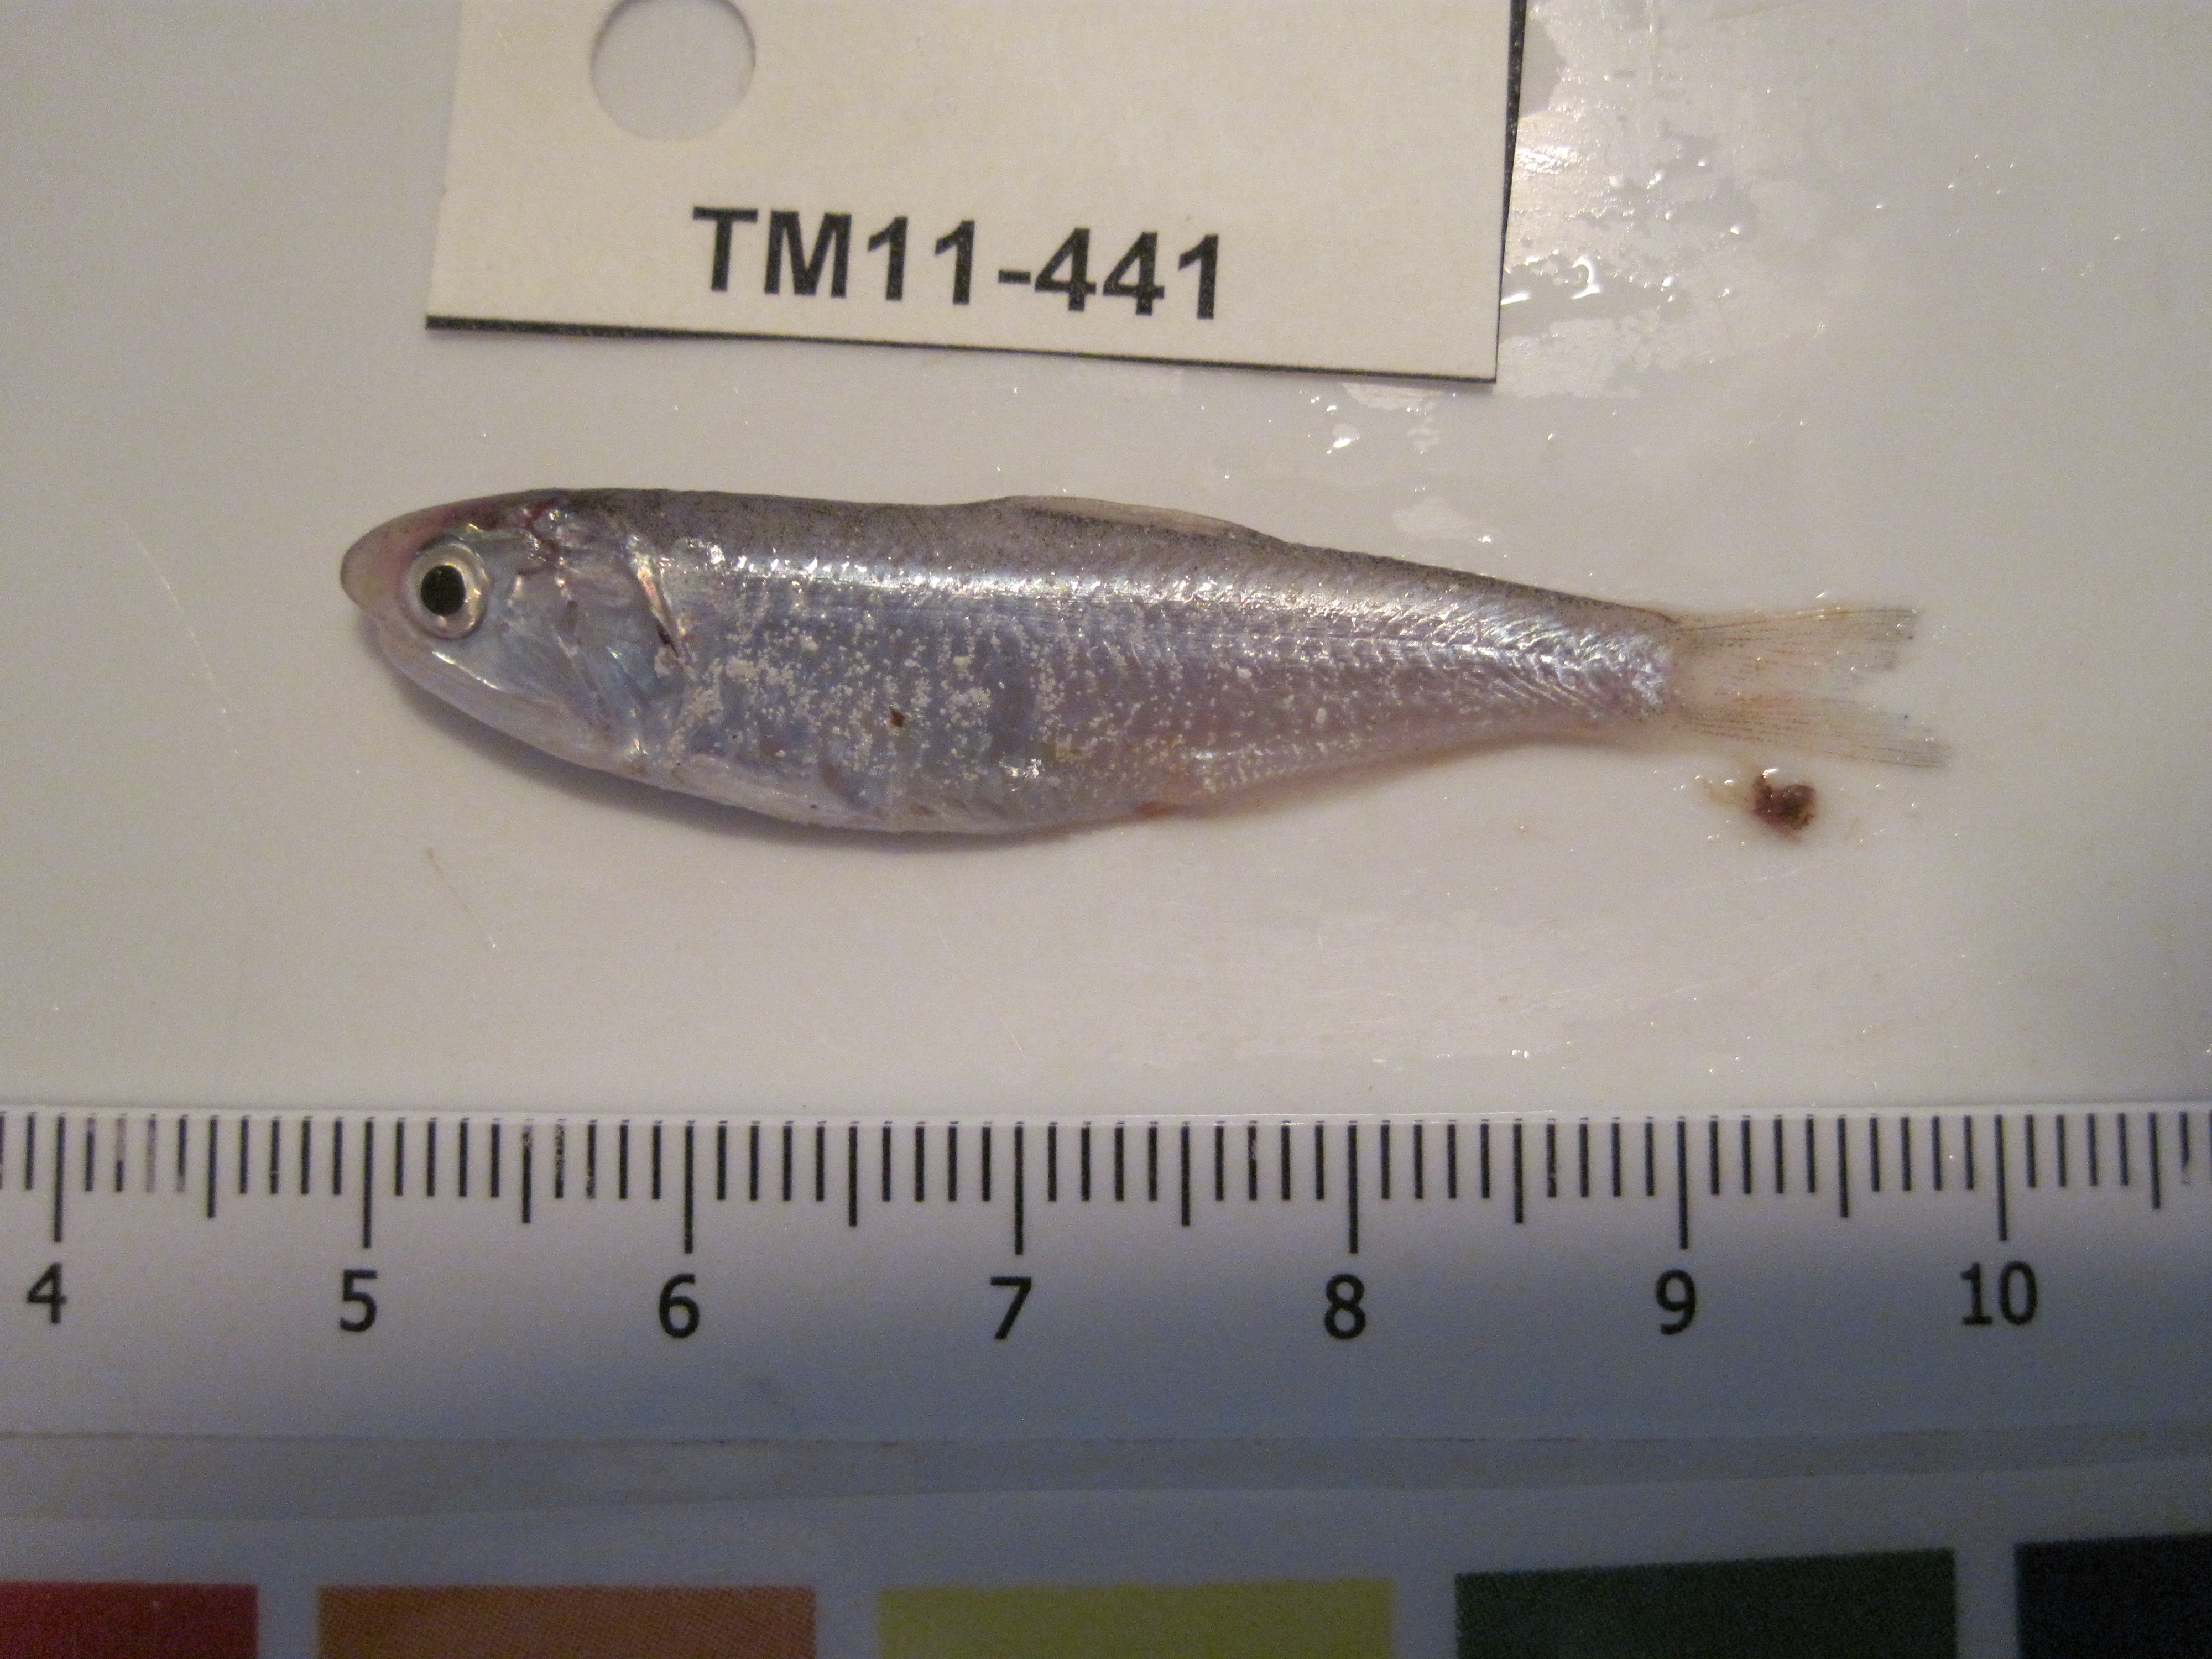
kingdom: Animalia
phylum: Chordata
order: Clupeiformes
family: Engraulidae
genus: Thryssa
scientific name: Thryssa baelama
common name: Baelama anchovy
